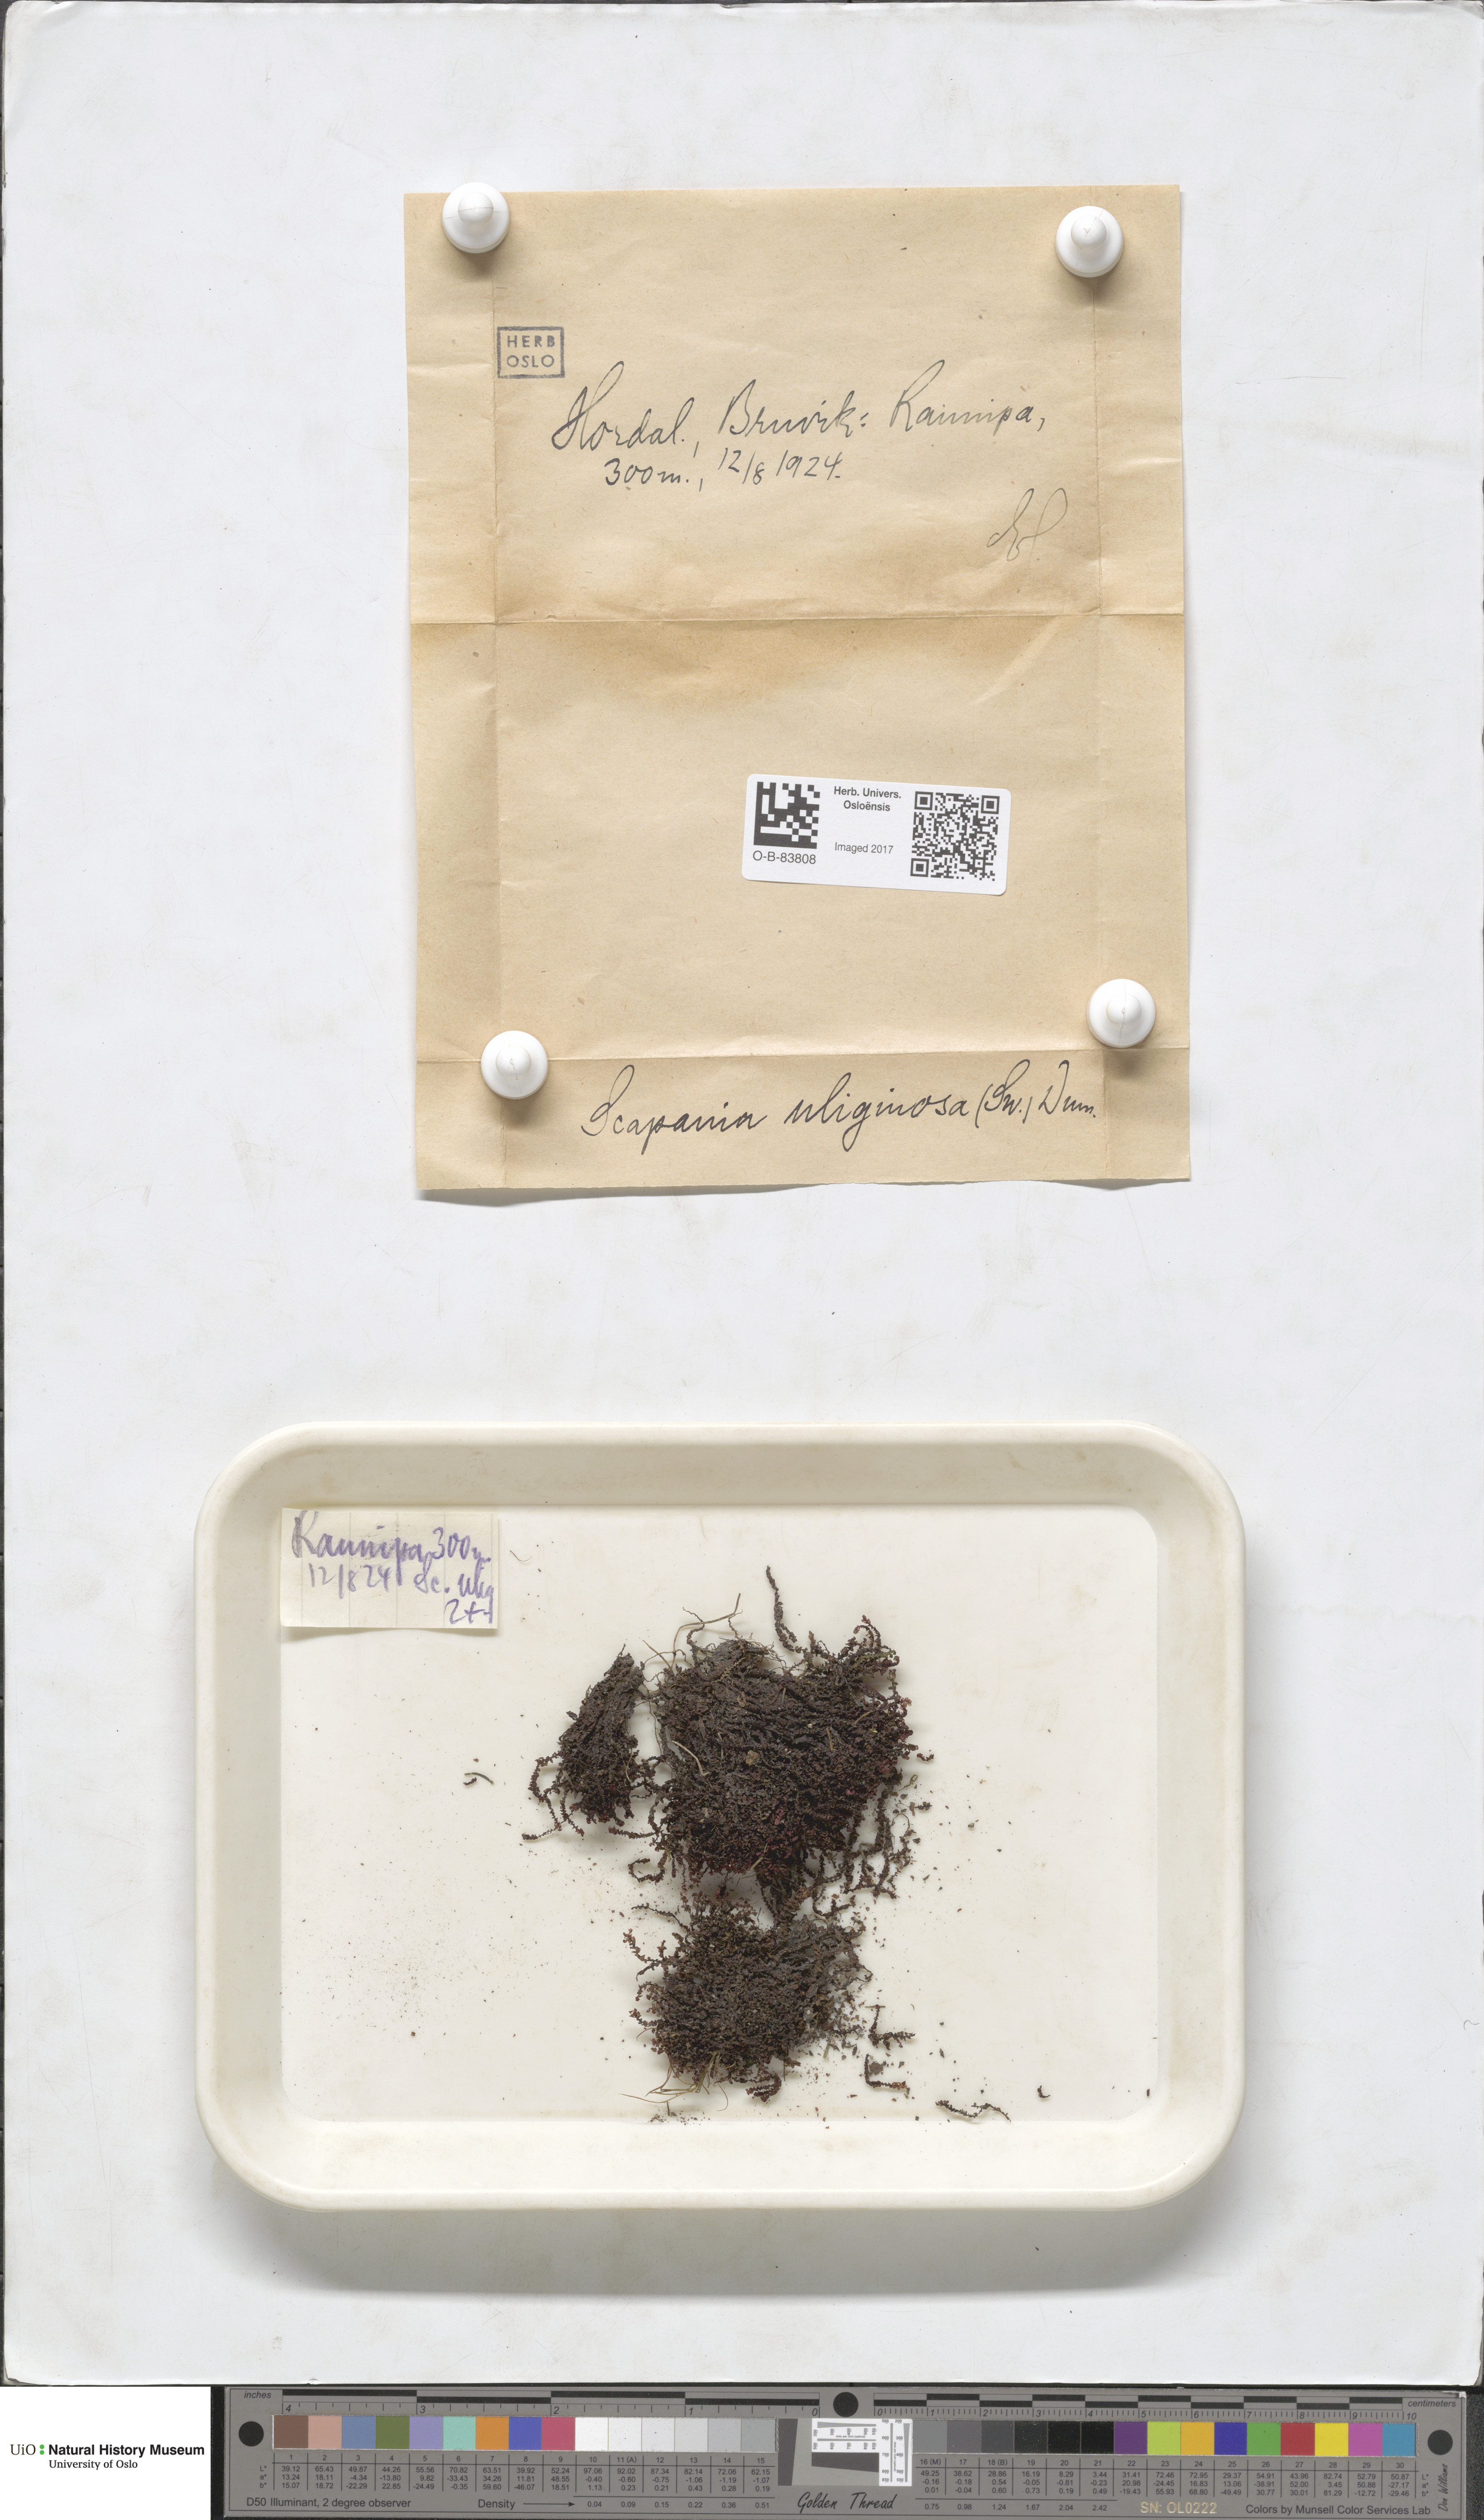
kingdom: Plantae
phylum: Marchantiophyta
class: Jungermanniopsida
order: Jungermanniales
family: Scapaniaceae
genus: Scapania
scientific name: Scapania uliginosa
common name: Marsh earwort
